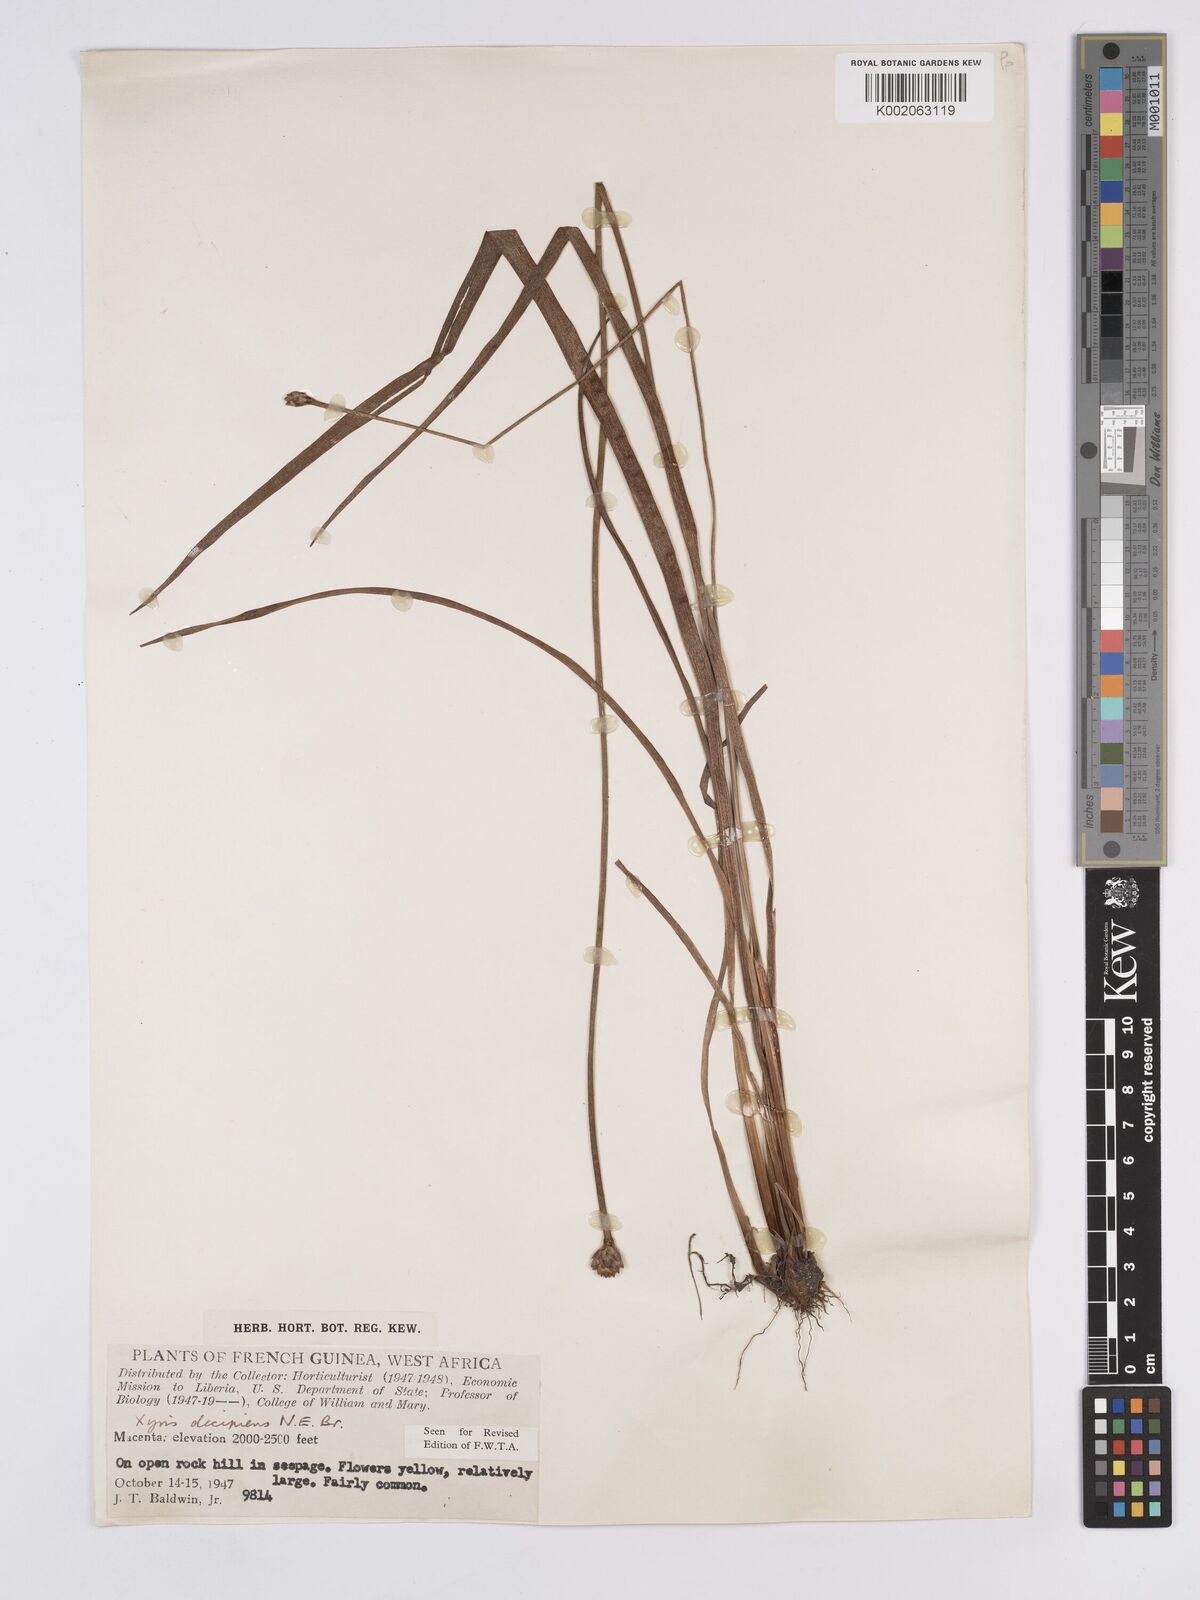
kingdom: Plantae
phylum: Tracheophyta
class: Liliopsida
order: Poales
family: Xyridaceae
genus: Xyris
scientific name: Xyris decipiens
